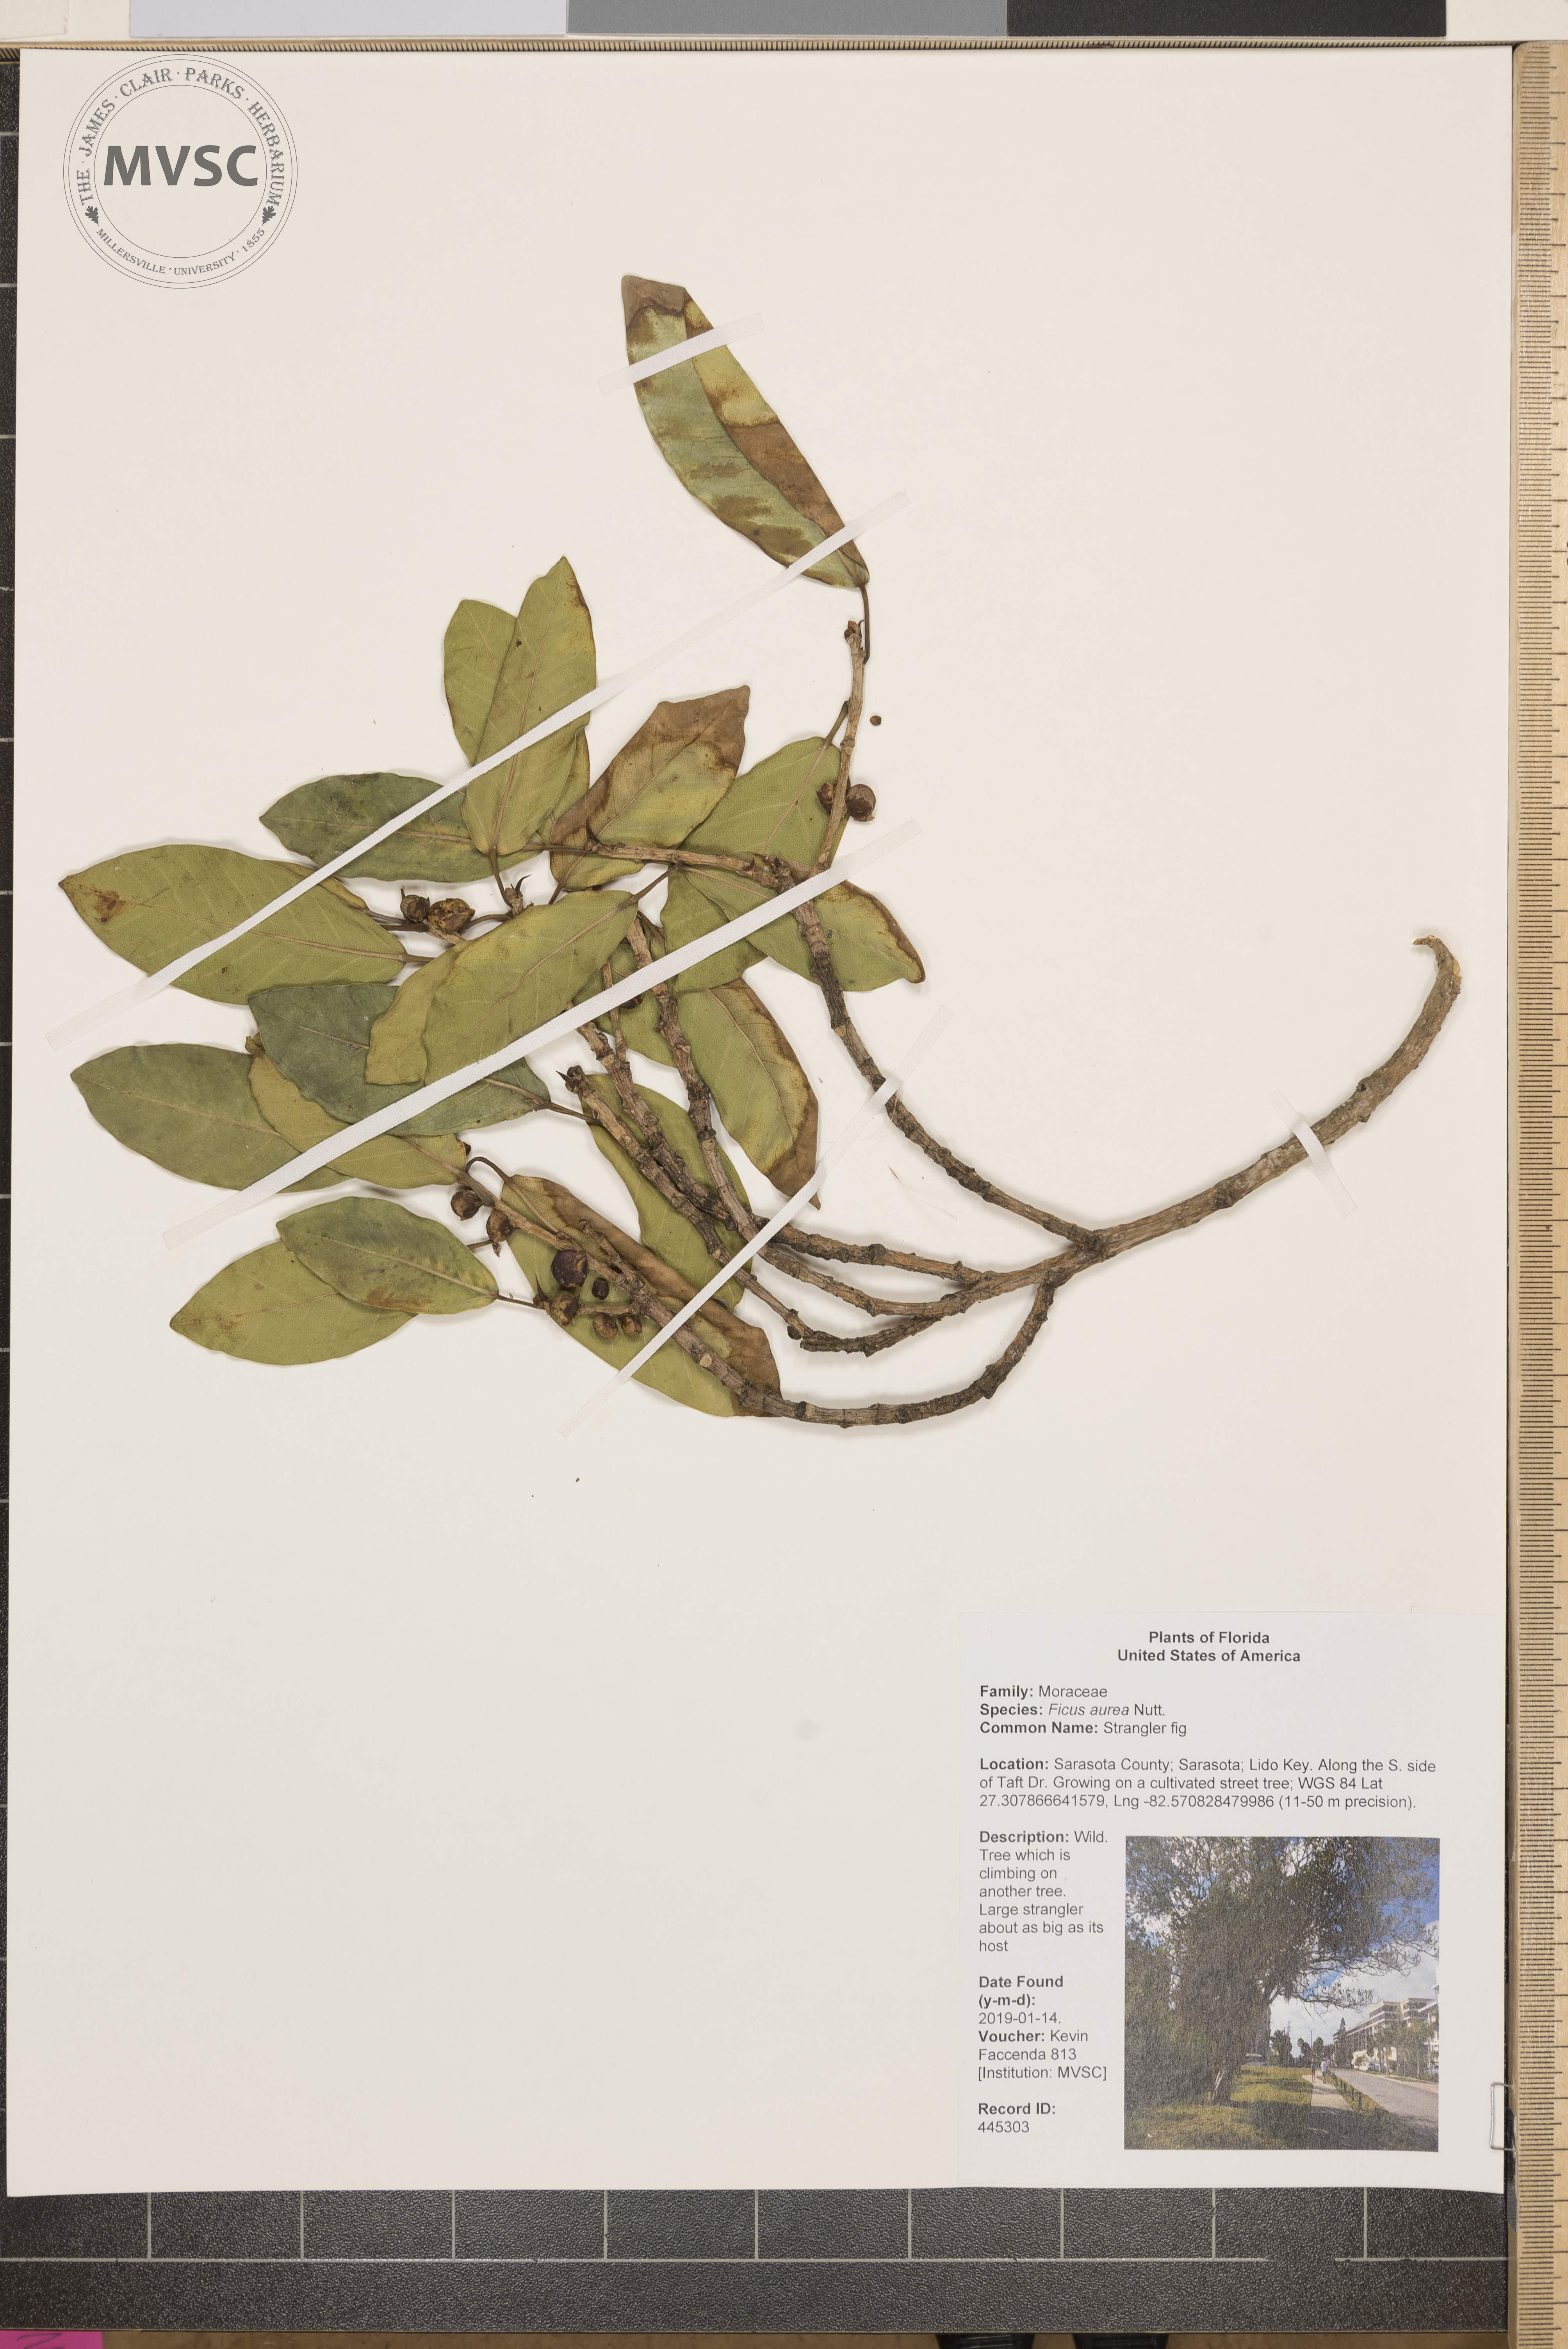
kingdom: Plantae
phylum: Tracheophyta
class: Magnoliopsida
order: Rosales
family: Moraceae
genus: Ficus
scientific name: Ficus aurea
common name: Strangler fig
